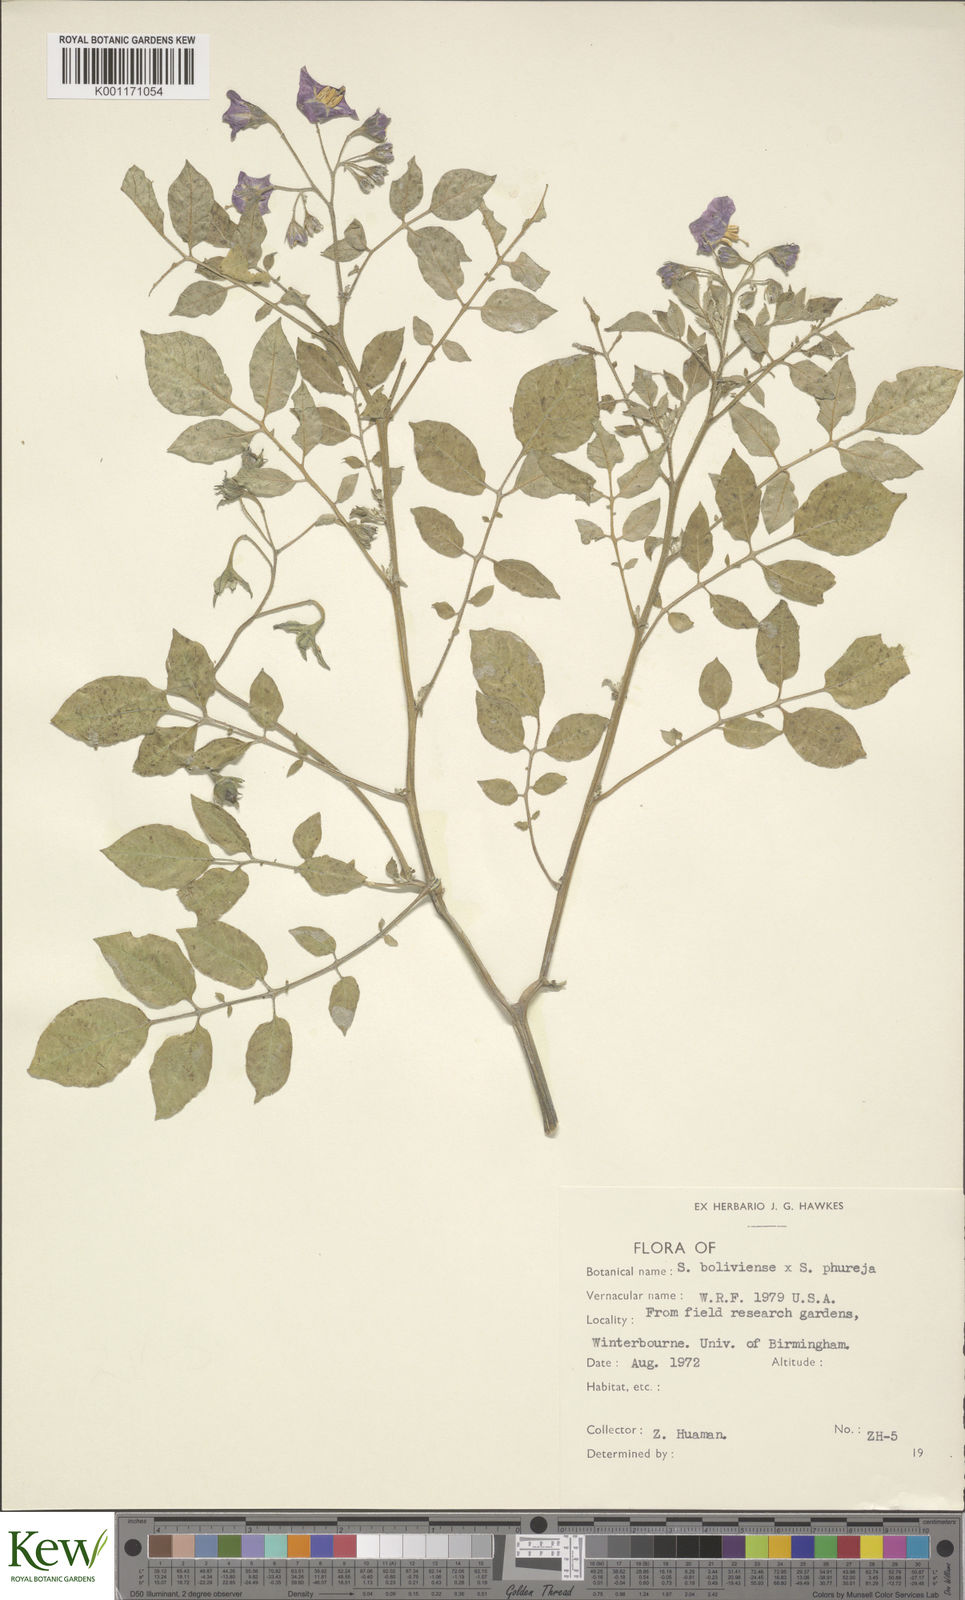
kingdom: Plantae
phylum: Tracheophyta
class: Magnoliopsida
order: Solanales
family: Solanaceae
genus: Solanum
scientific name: Solanum boliviense
